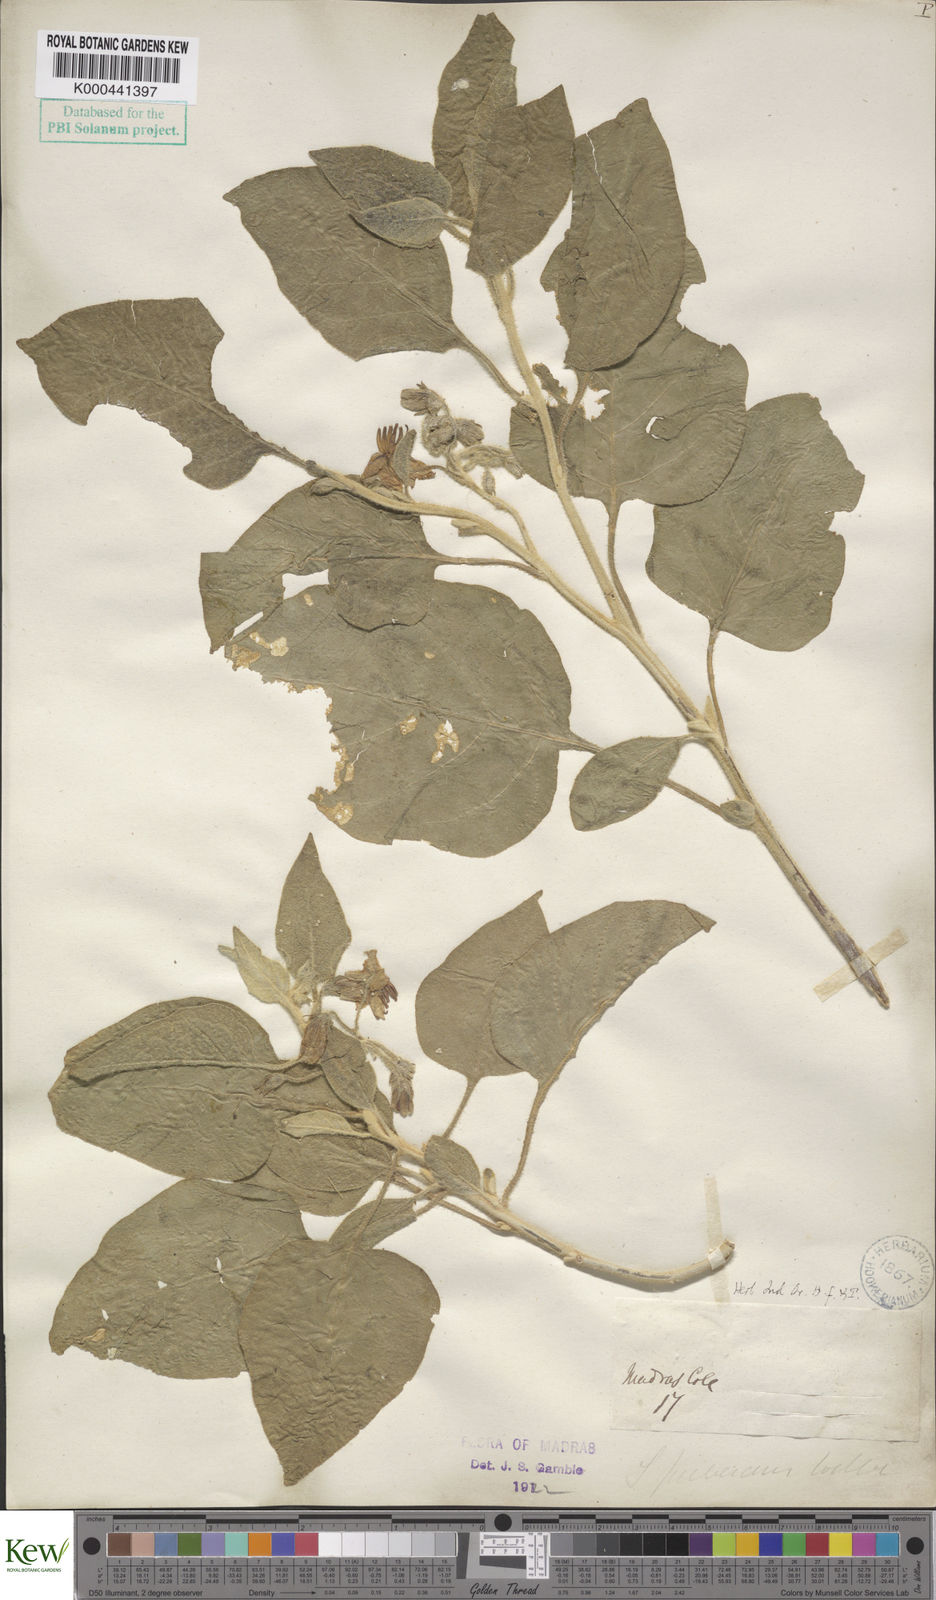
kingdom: Plantae
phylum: Tracheophyta
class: Magnoliopsida
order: Solanales
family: Solanaceae
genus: Solanum
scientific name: Solanum pubescens
